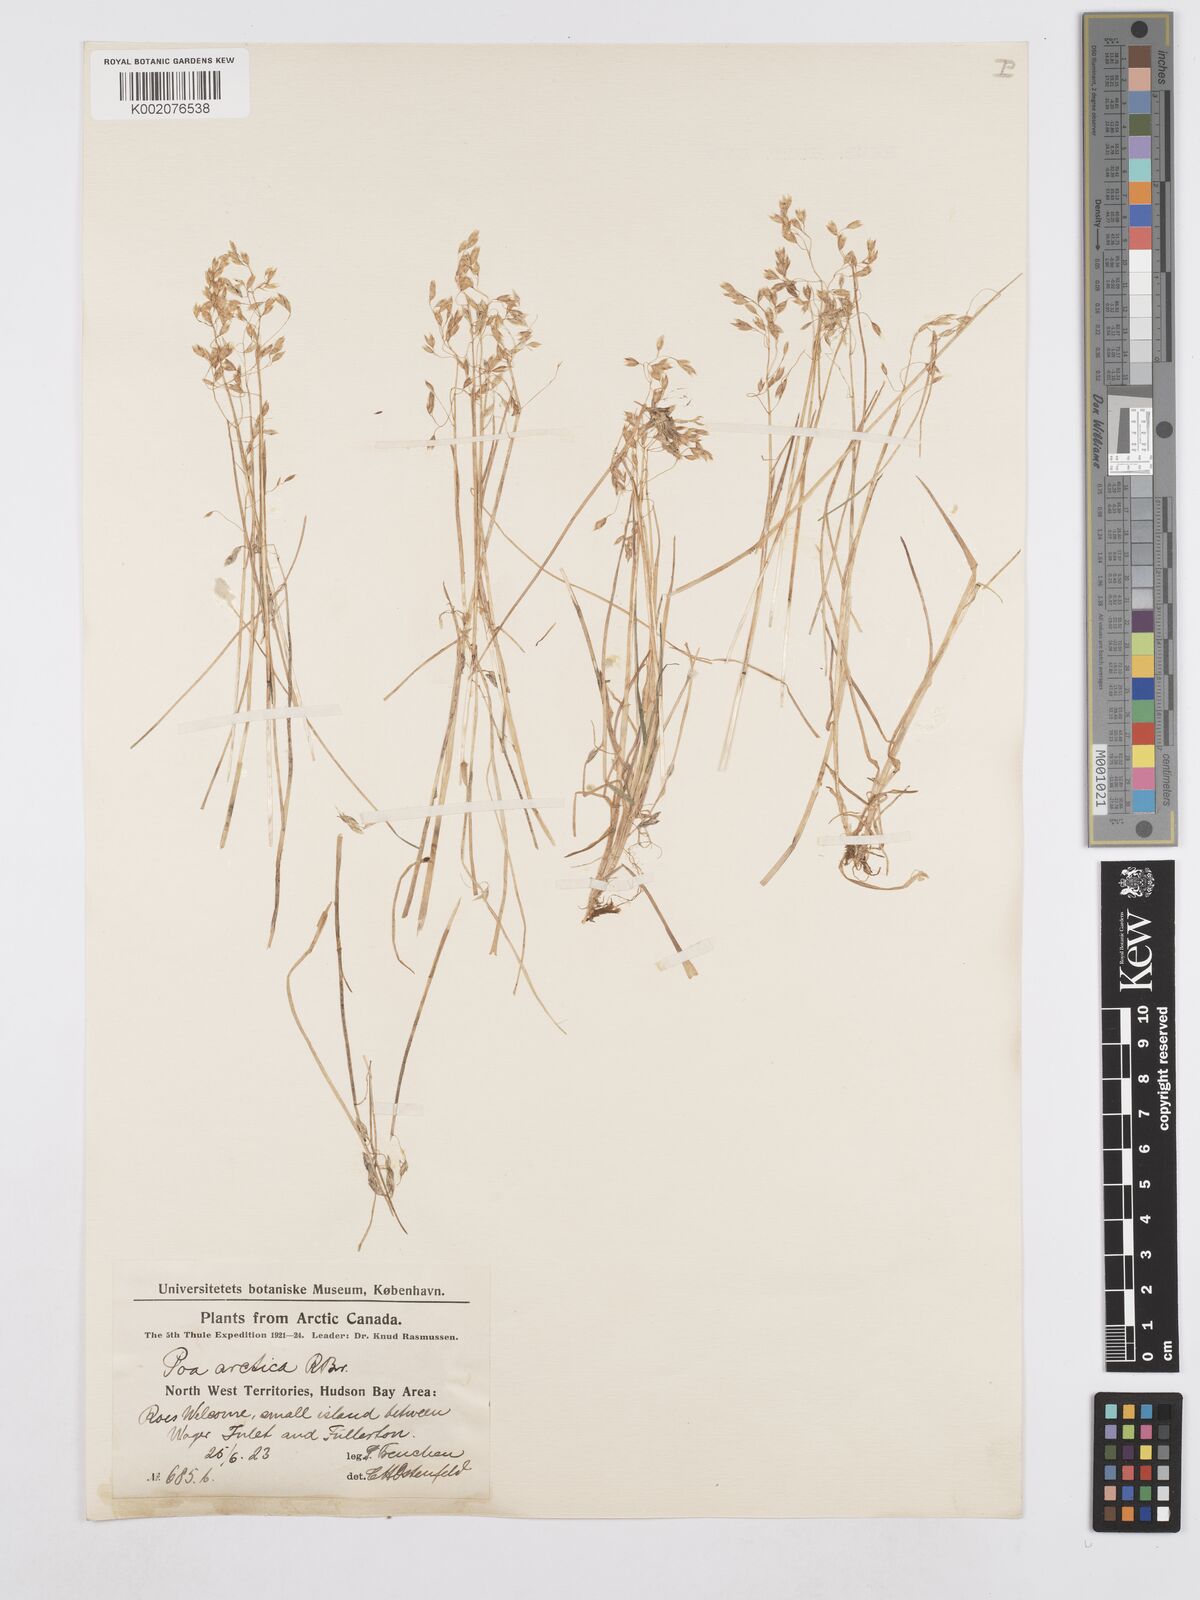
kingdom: Plantae
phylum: Tracheophyta
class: Liliopsida
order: Poales
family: Poaceae
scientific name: Poaceae
